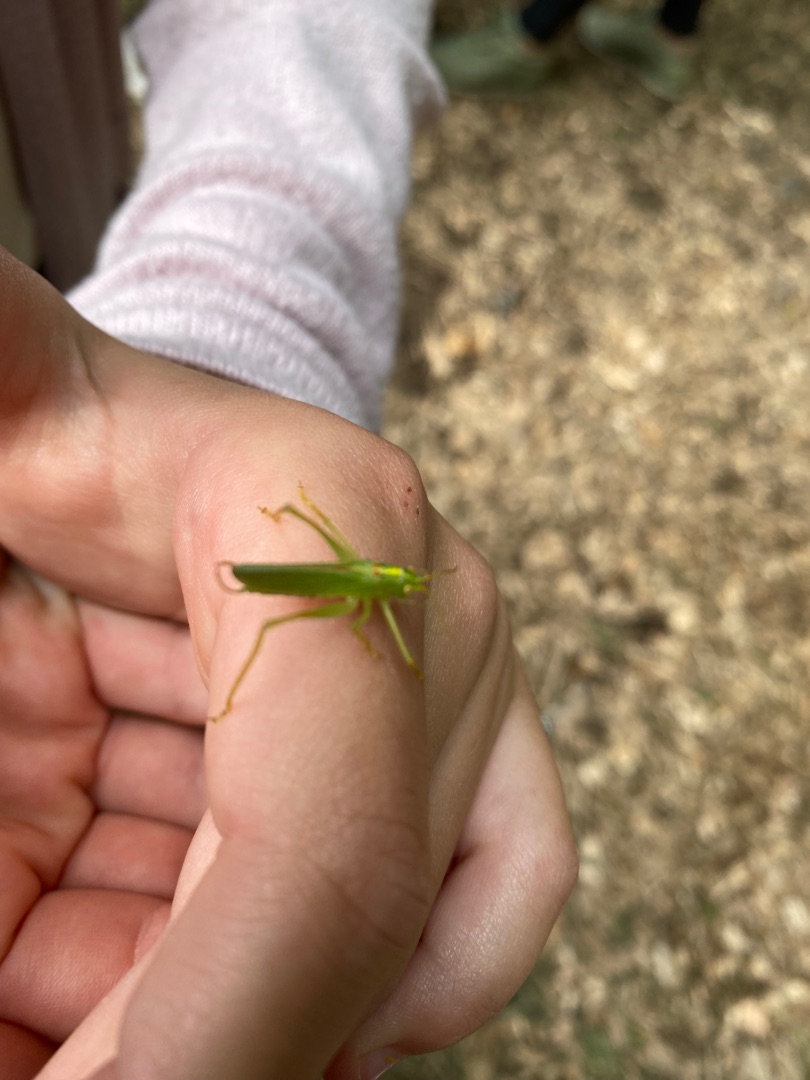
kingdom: Animalia
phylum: Arthropoda
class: Insecta
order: Orthoptera
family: Tettigoniidae
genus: Meconema
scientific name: Meconema thalassinum
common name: Egegræshoppe
